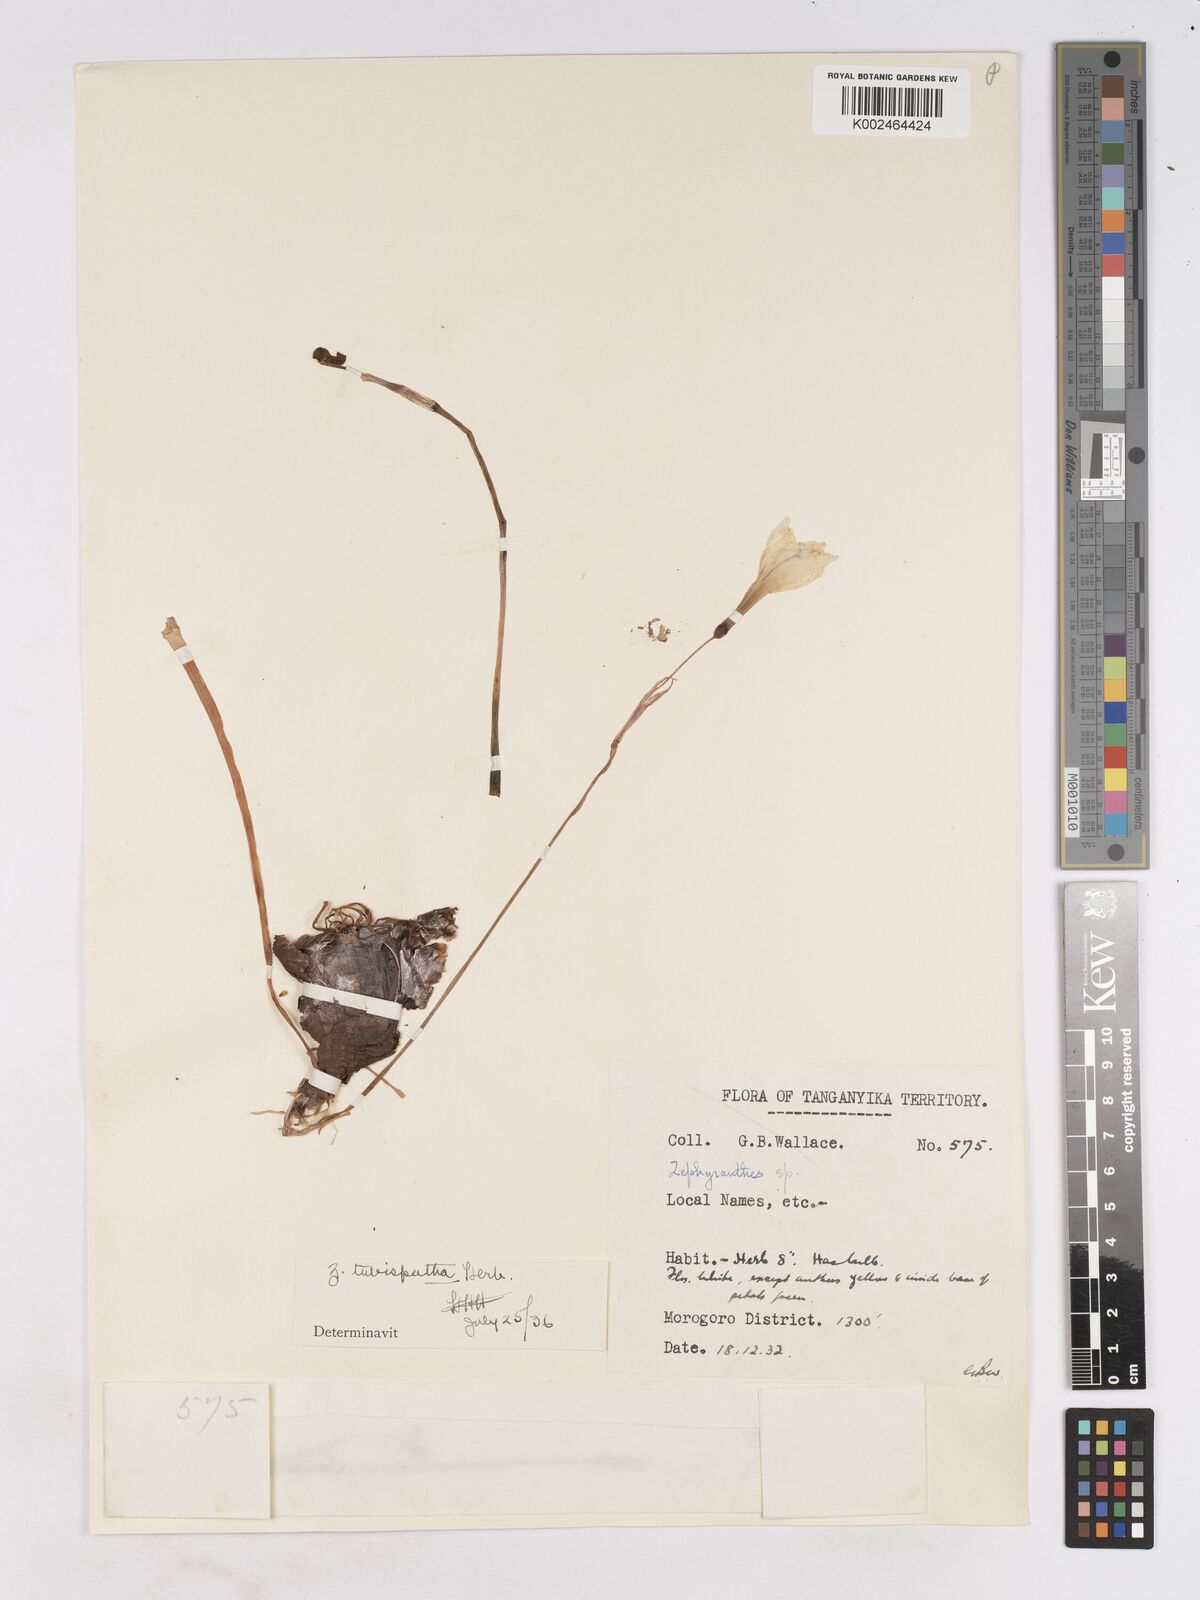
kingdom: Plantae
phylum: Tracheophyta
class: Liliopsida
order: Asparagales
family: Amaryllidaceae
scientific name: Amaryllidaceae
